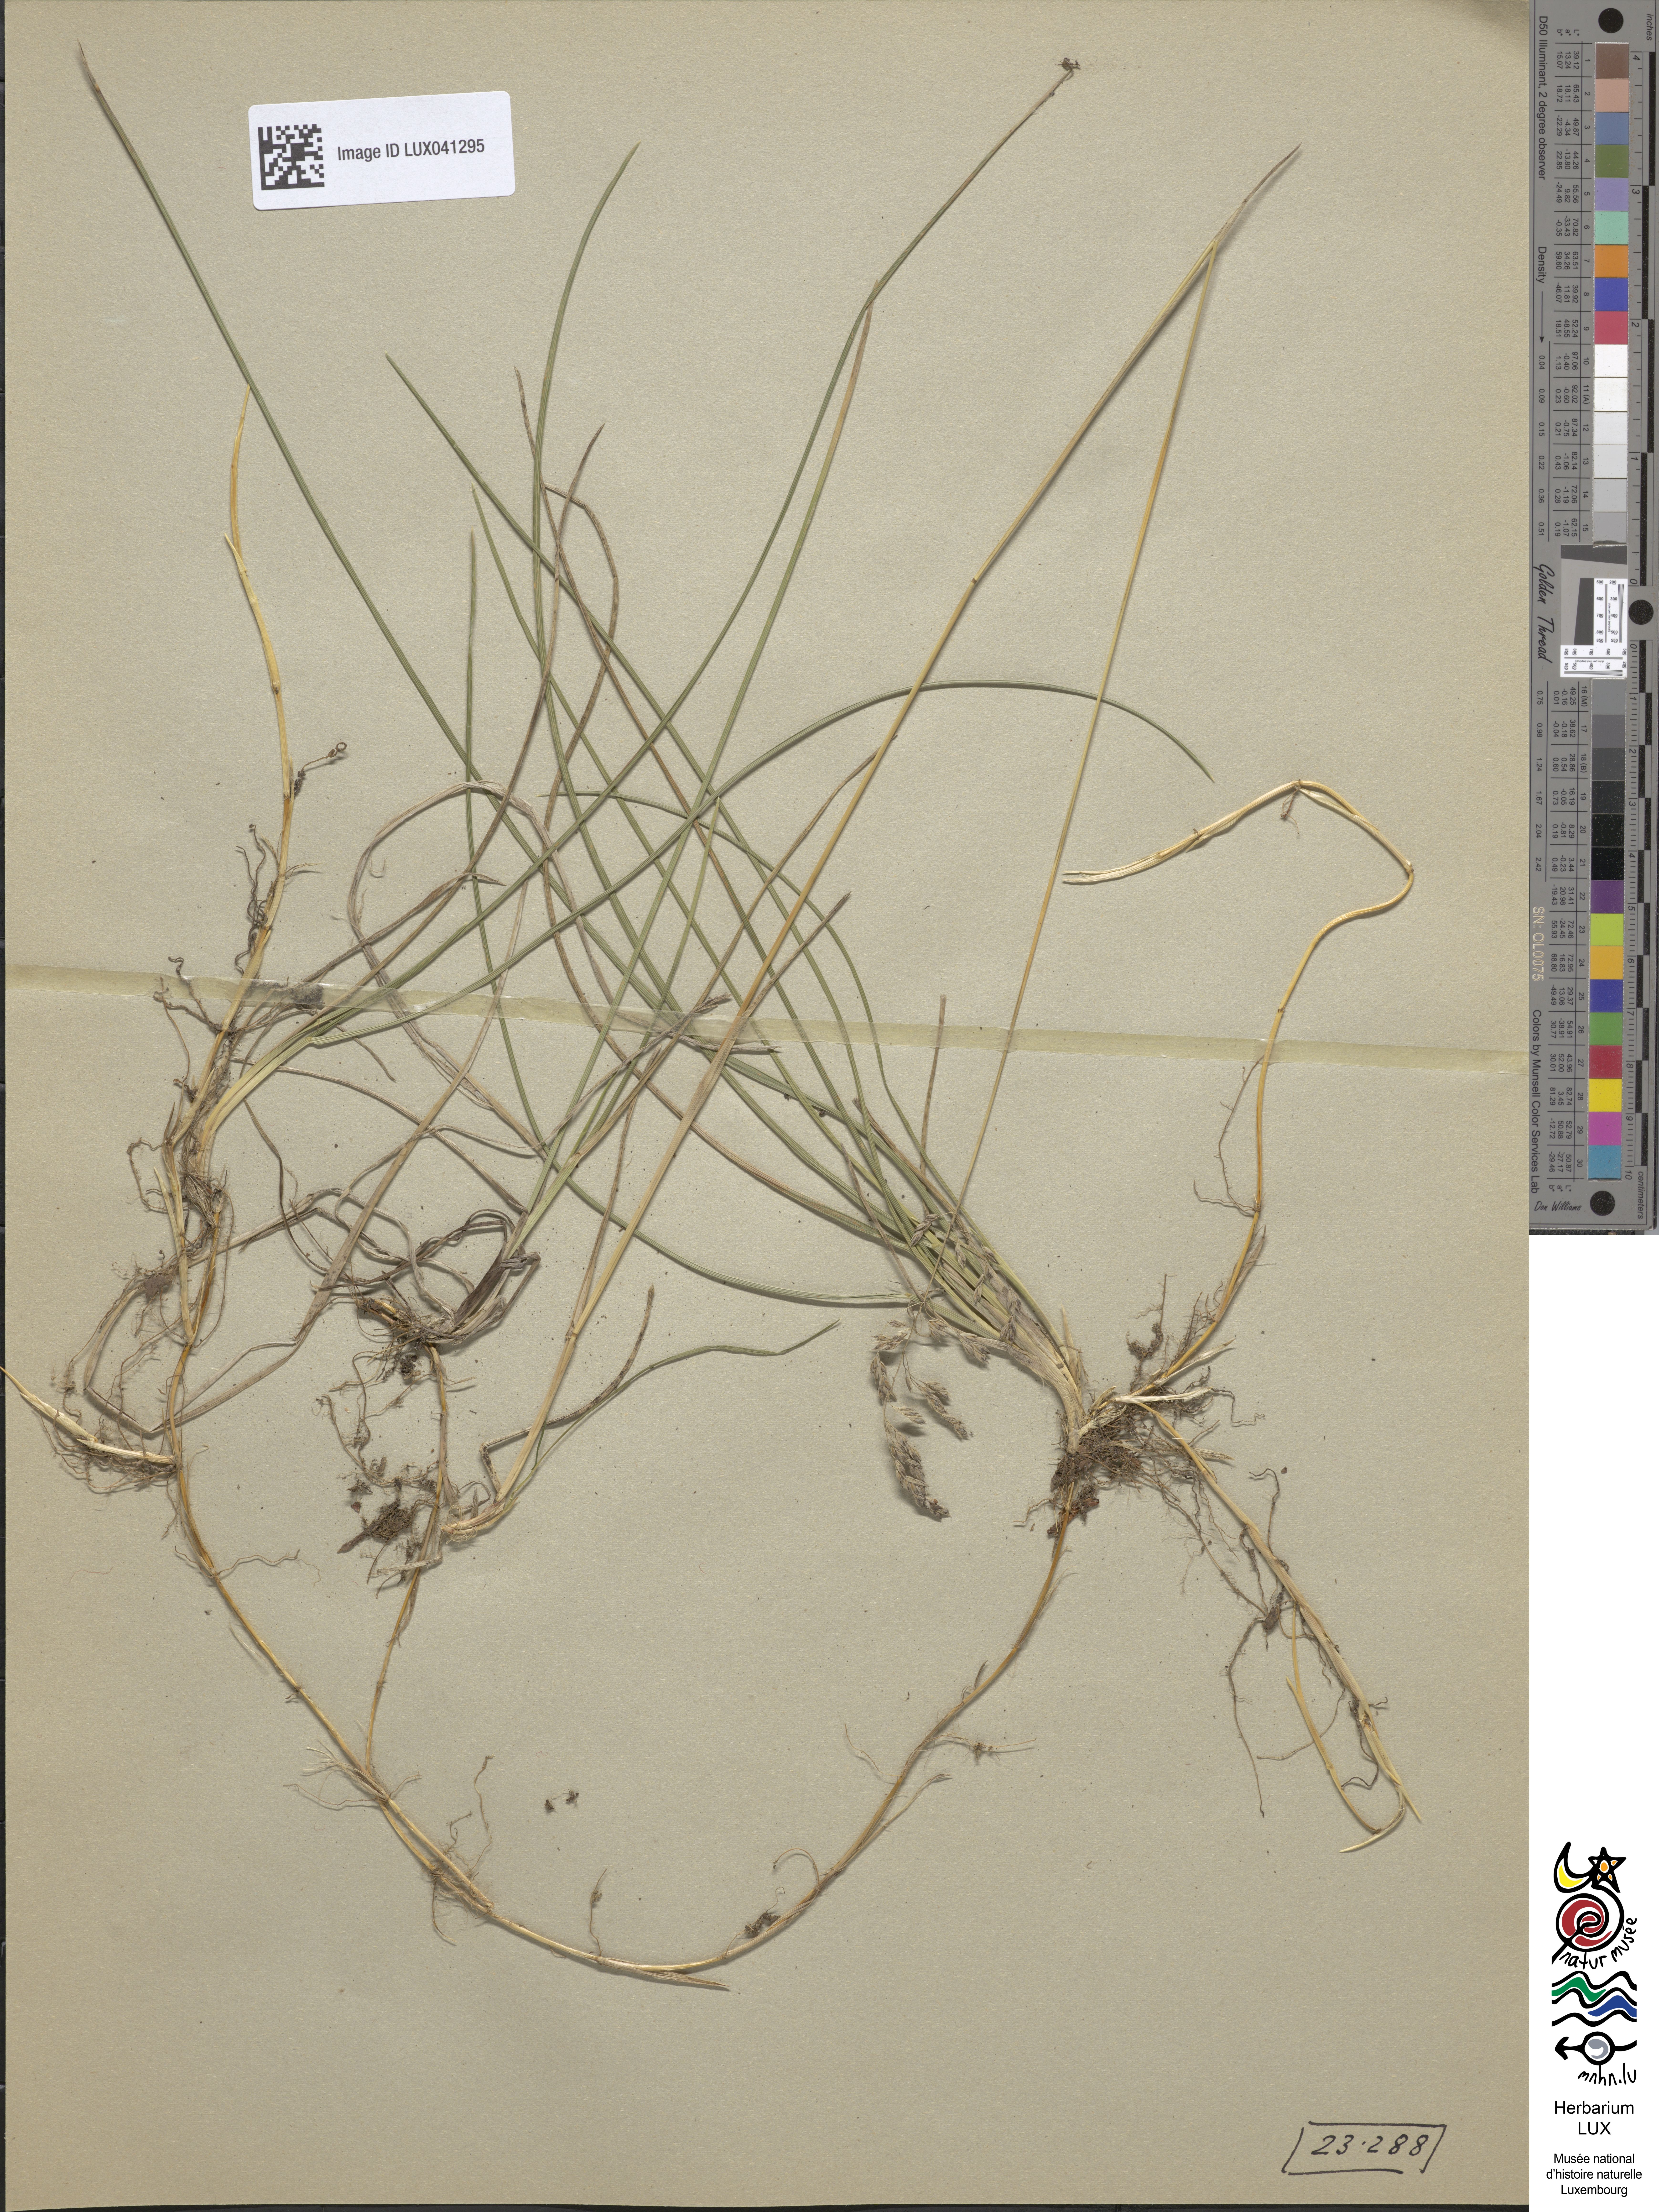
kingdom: Plantae
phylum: Tracheophyta
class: Liliopsida
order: Poales
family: Poaceae
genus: Poa
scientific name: Poa pratensis
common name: Kentucky bluegrass
